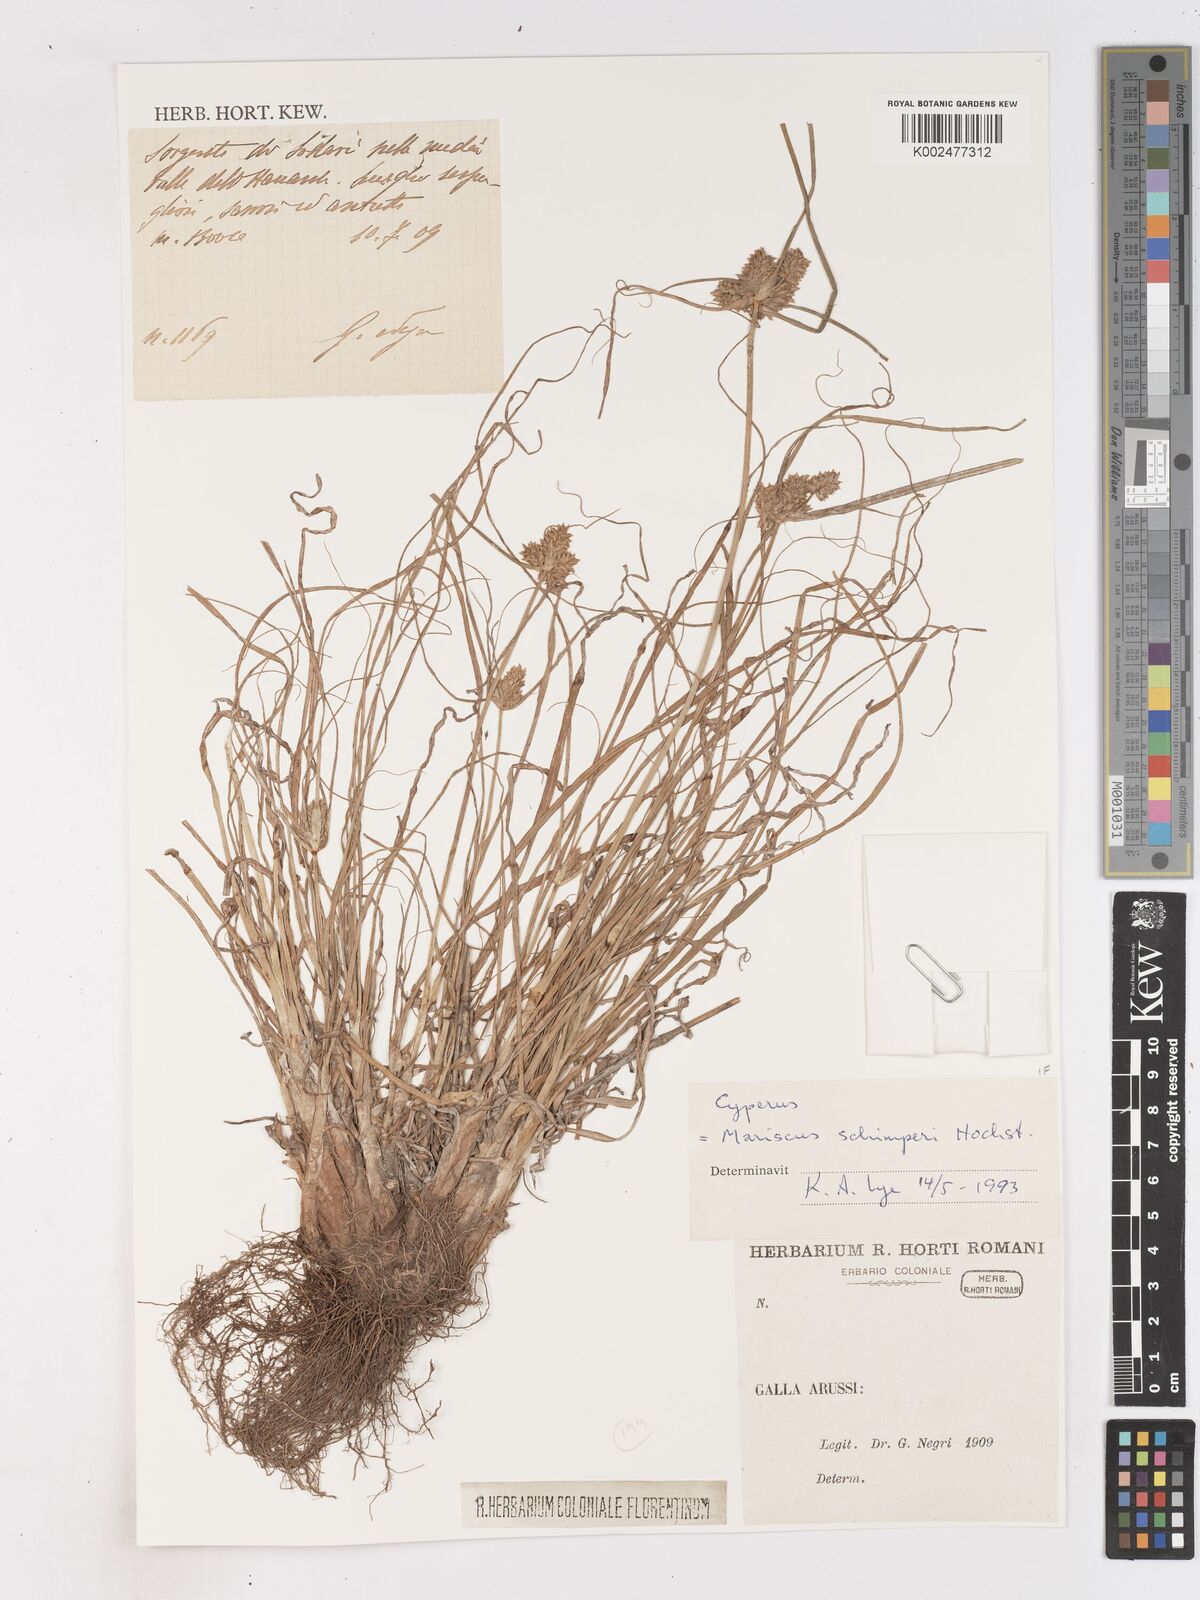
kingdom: Plantae
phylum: Tracheophyta
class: Liliopsida
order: Poales
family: Cyperaceae
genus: Cyperus
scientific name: Cyperus
